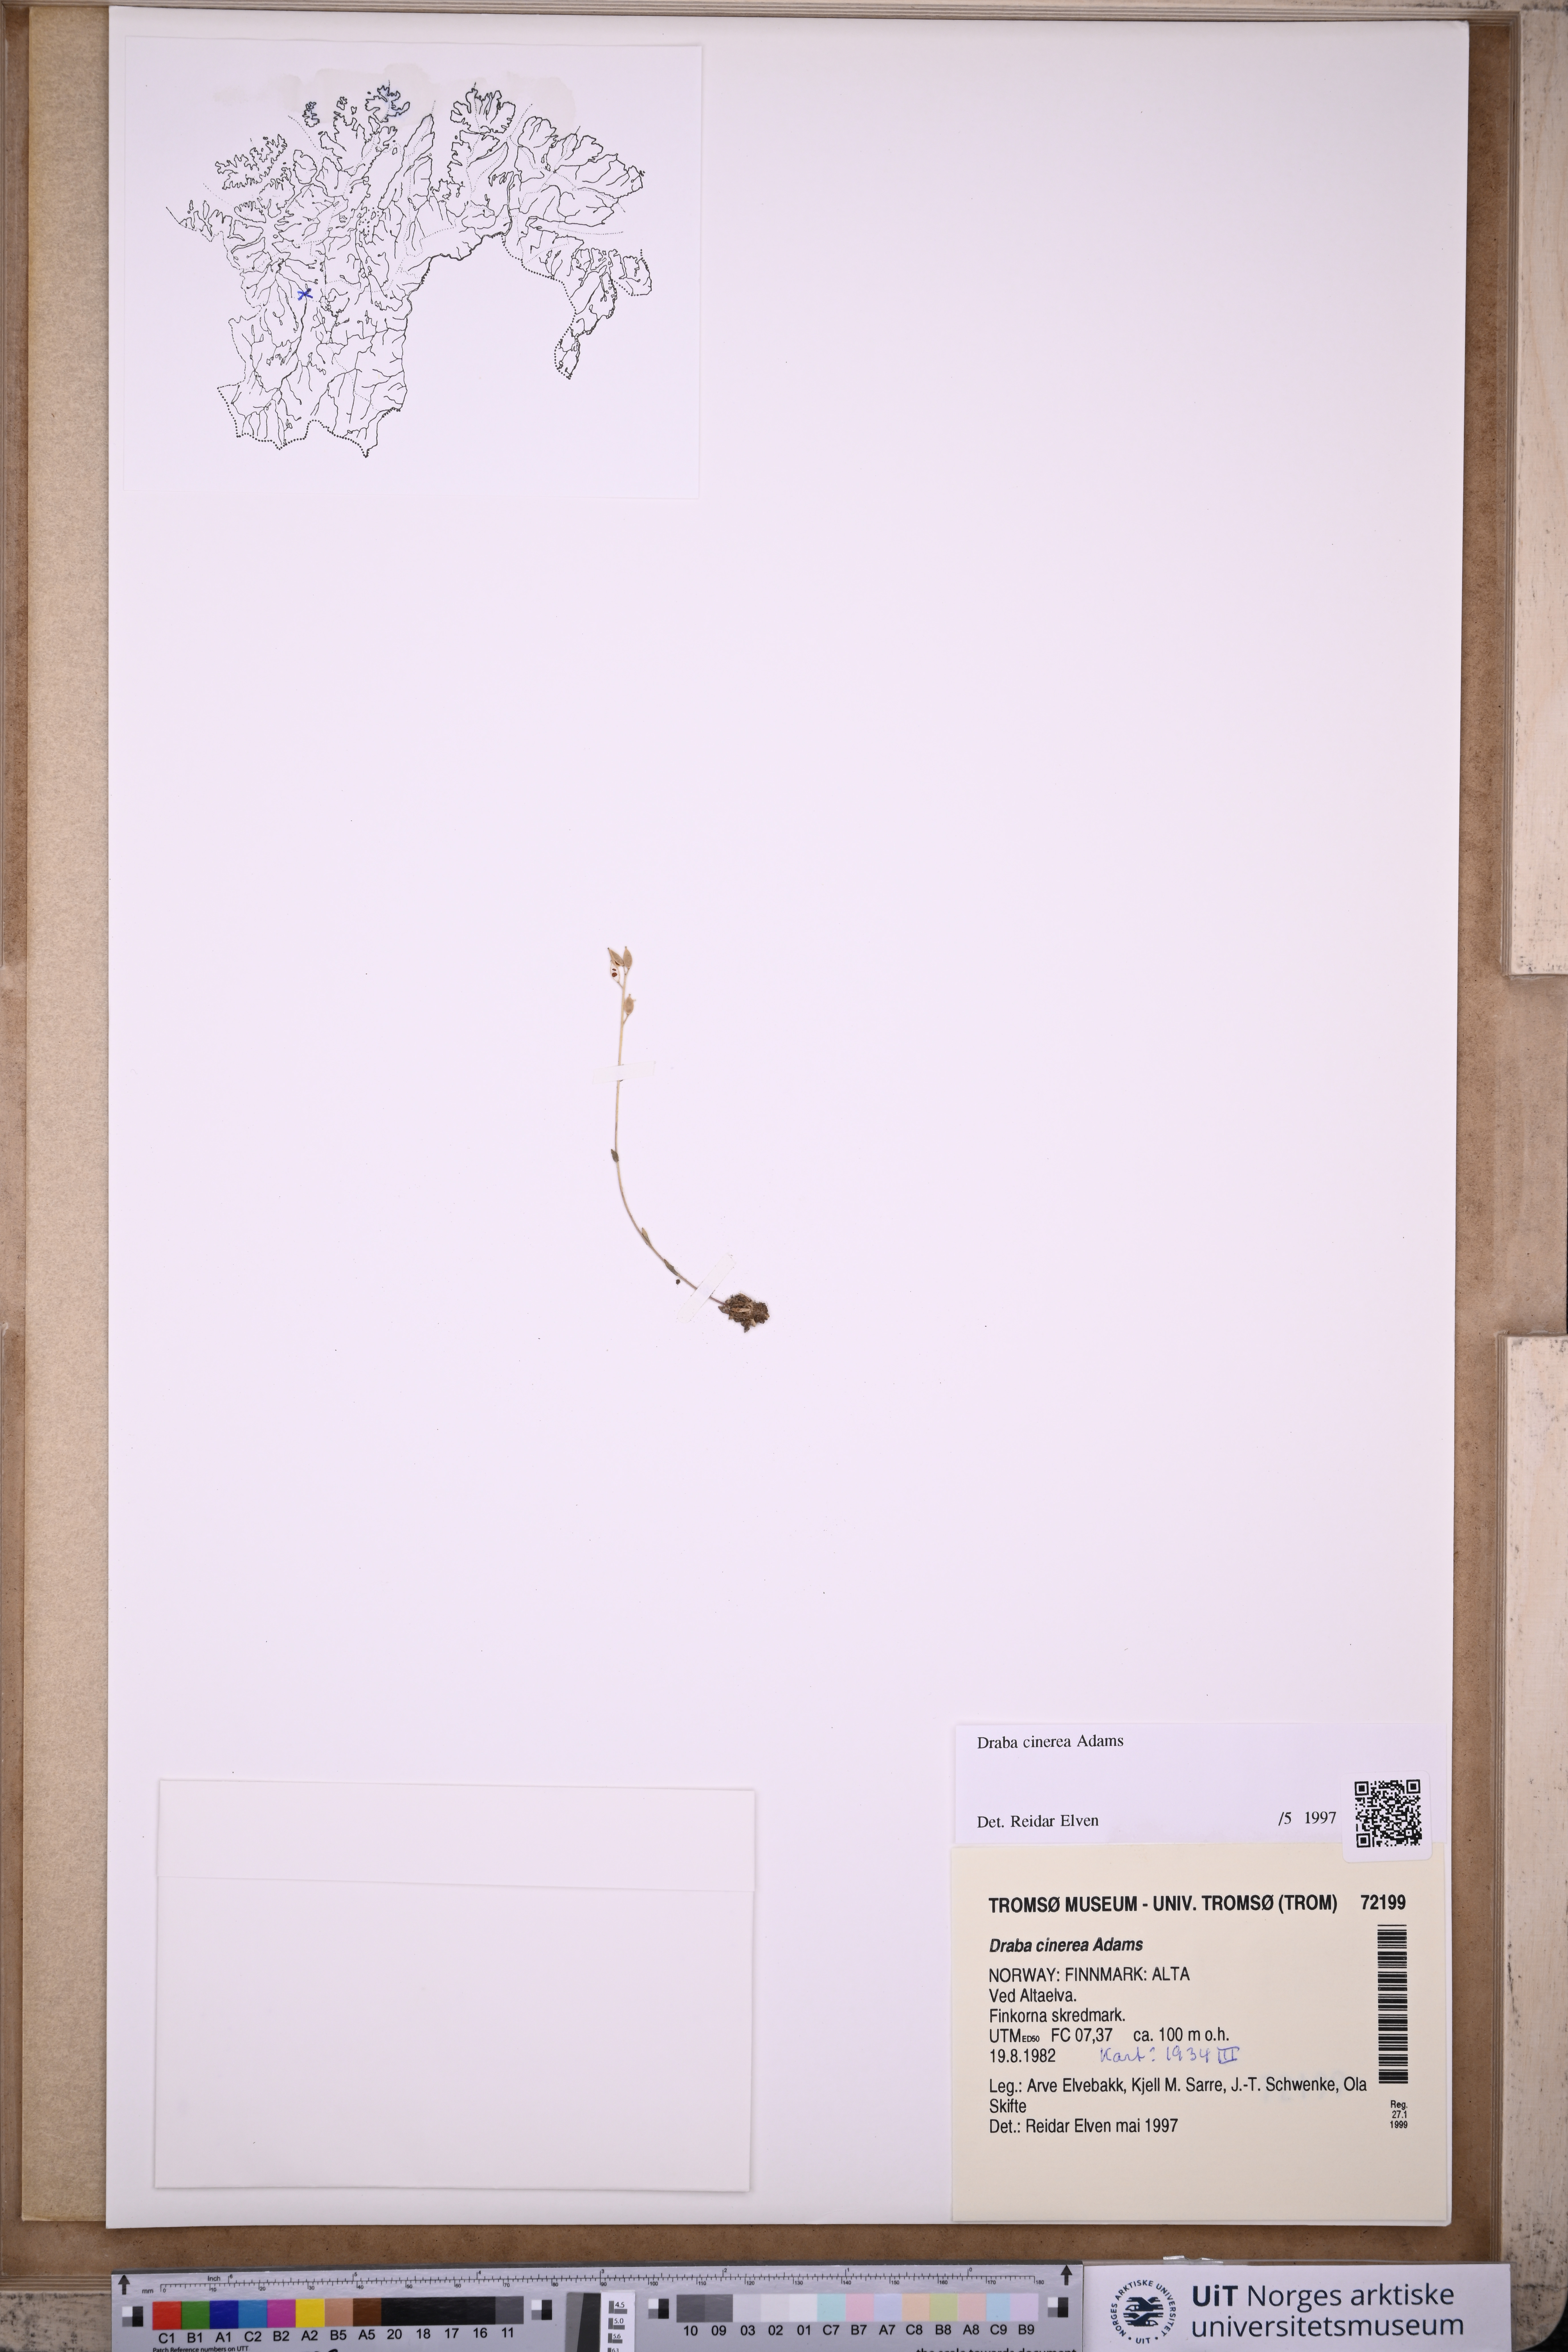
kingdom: Plantae
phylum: Tracheophyta
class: Magnoliopsida
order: Brassicales
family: Brassicaceae
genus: Draba
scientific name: Draba arctica
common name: Arctic draba
